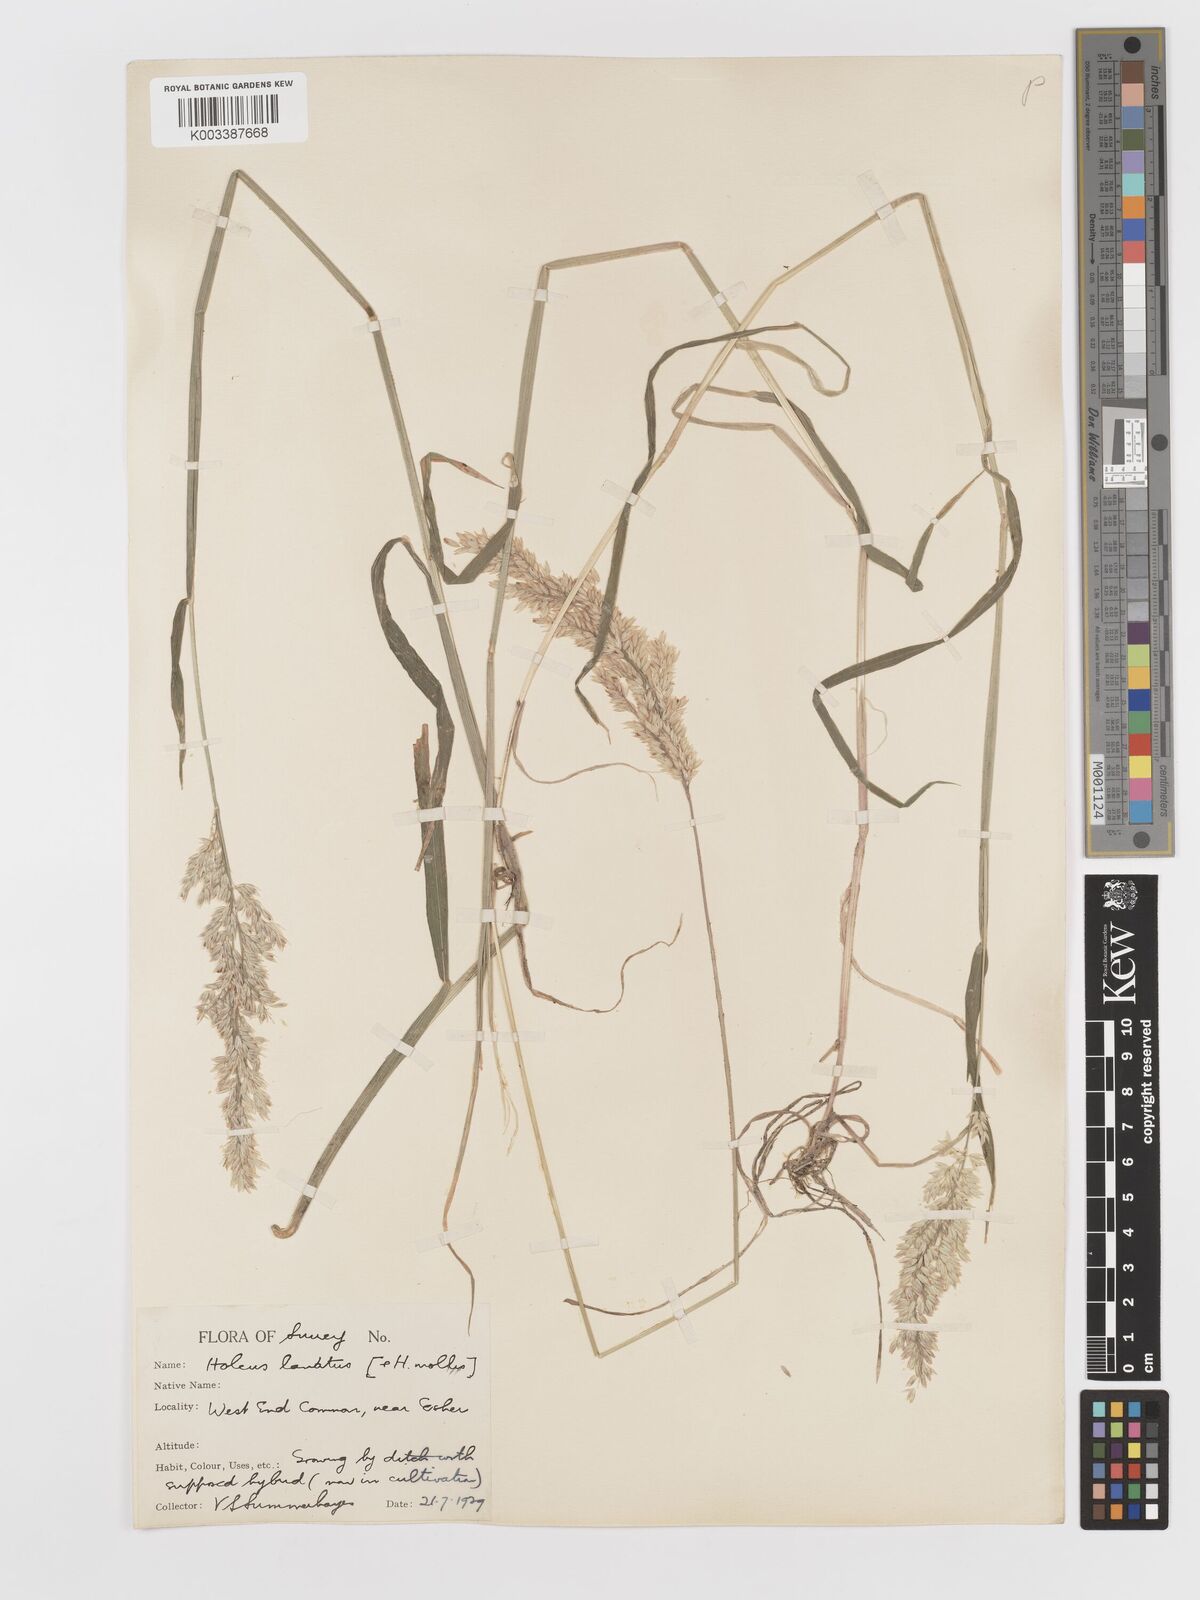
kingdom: Plantae
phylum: Tracheophyta
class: Liliopsida
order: Poales
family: Poaceae
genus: Holcus
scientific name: Holcus lanatus
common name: Yorkshire-fog
